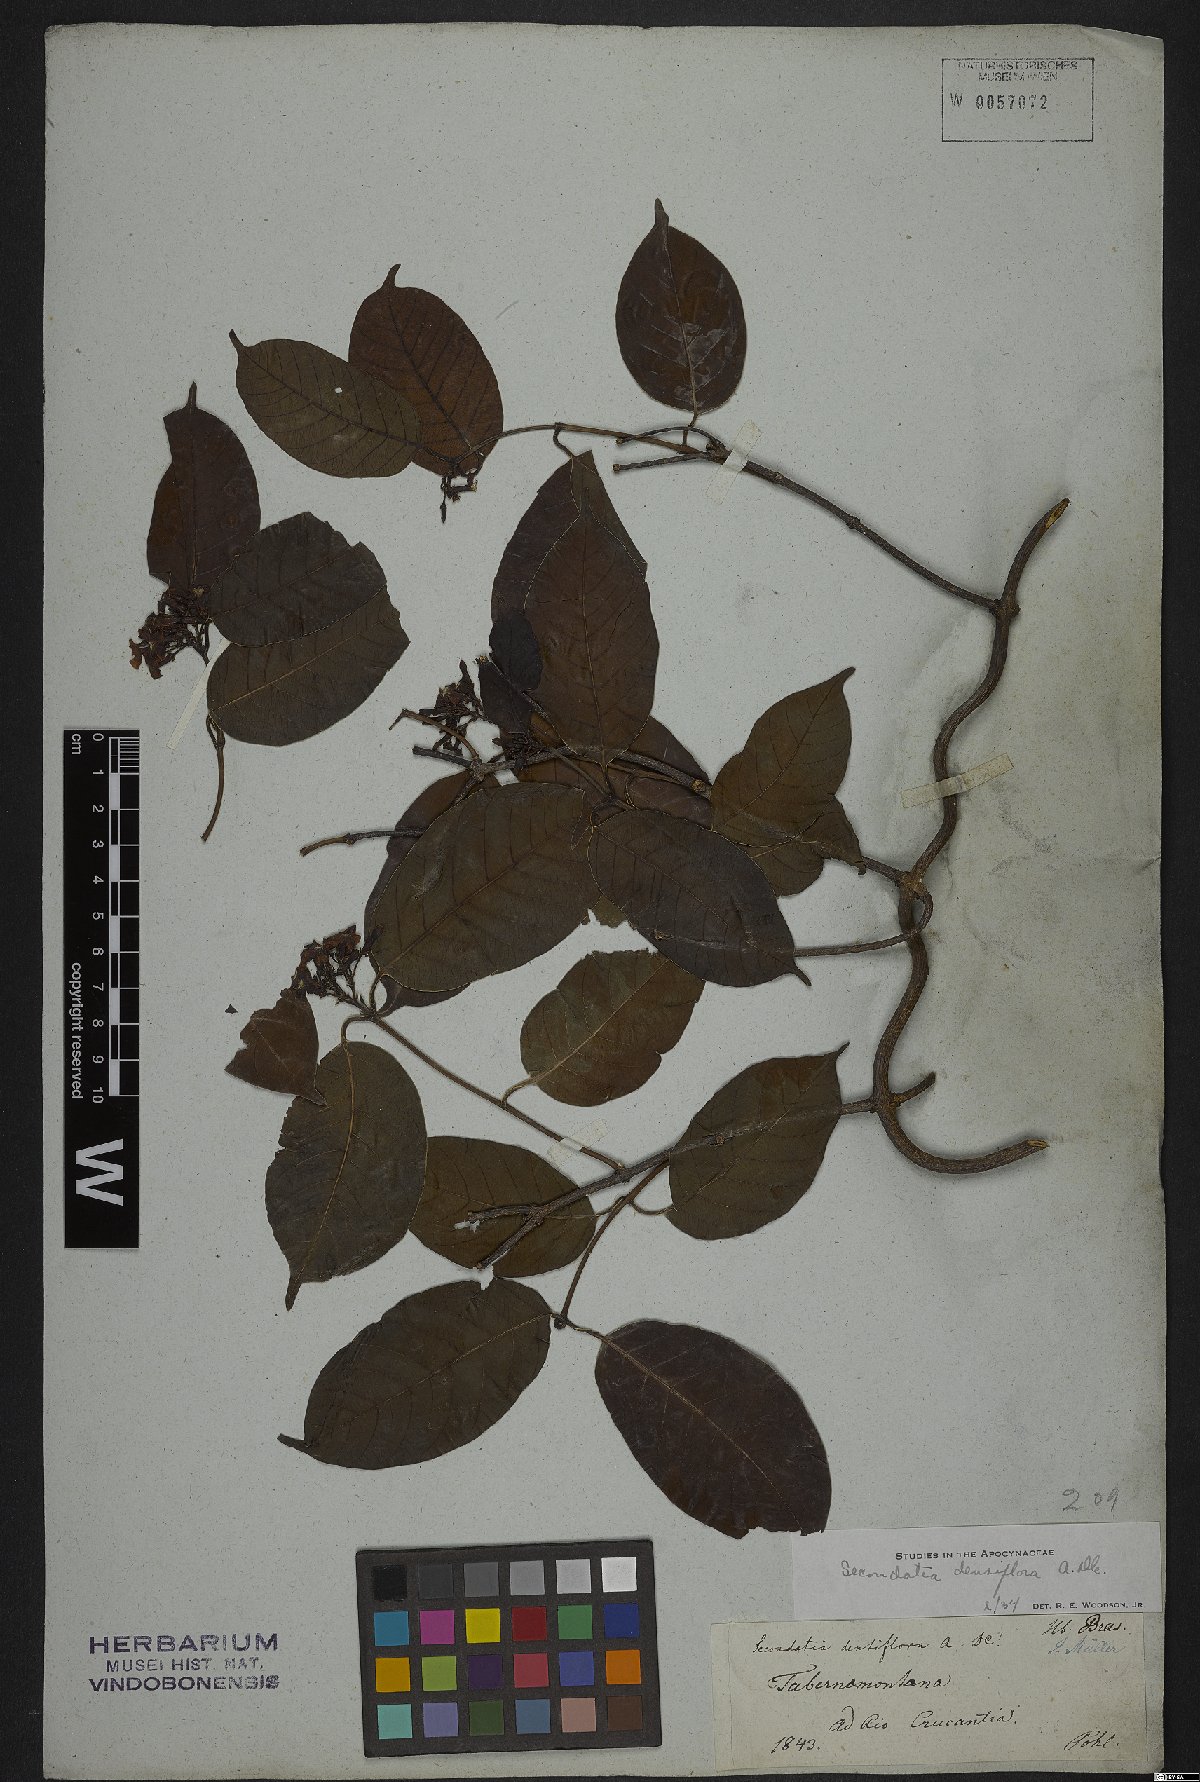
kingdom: Plantae
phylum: Tracheophyta
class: Magnoliopsida
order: Gentianales
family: Apocynaceae
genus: Secondatia
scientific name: Secondatia densiflora
